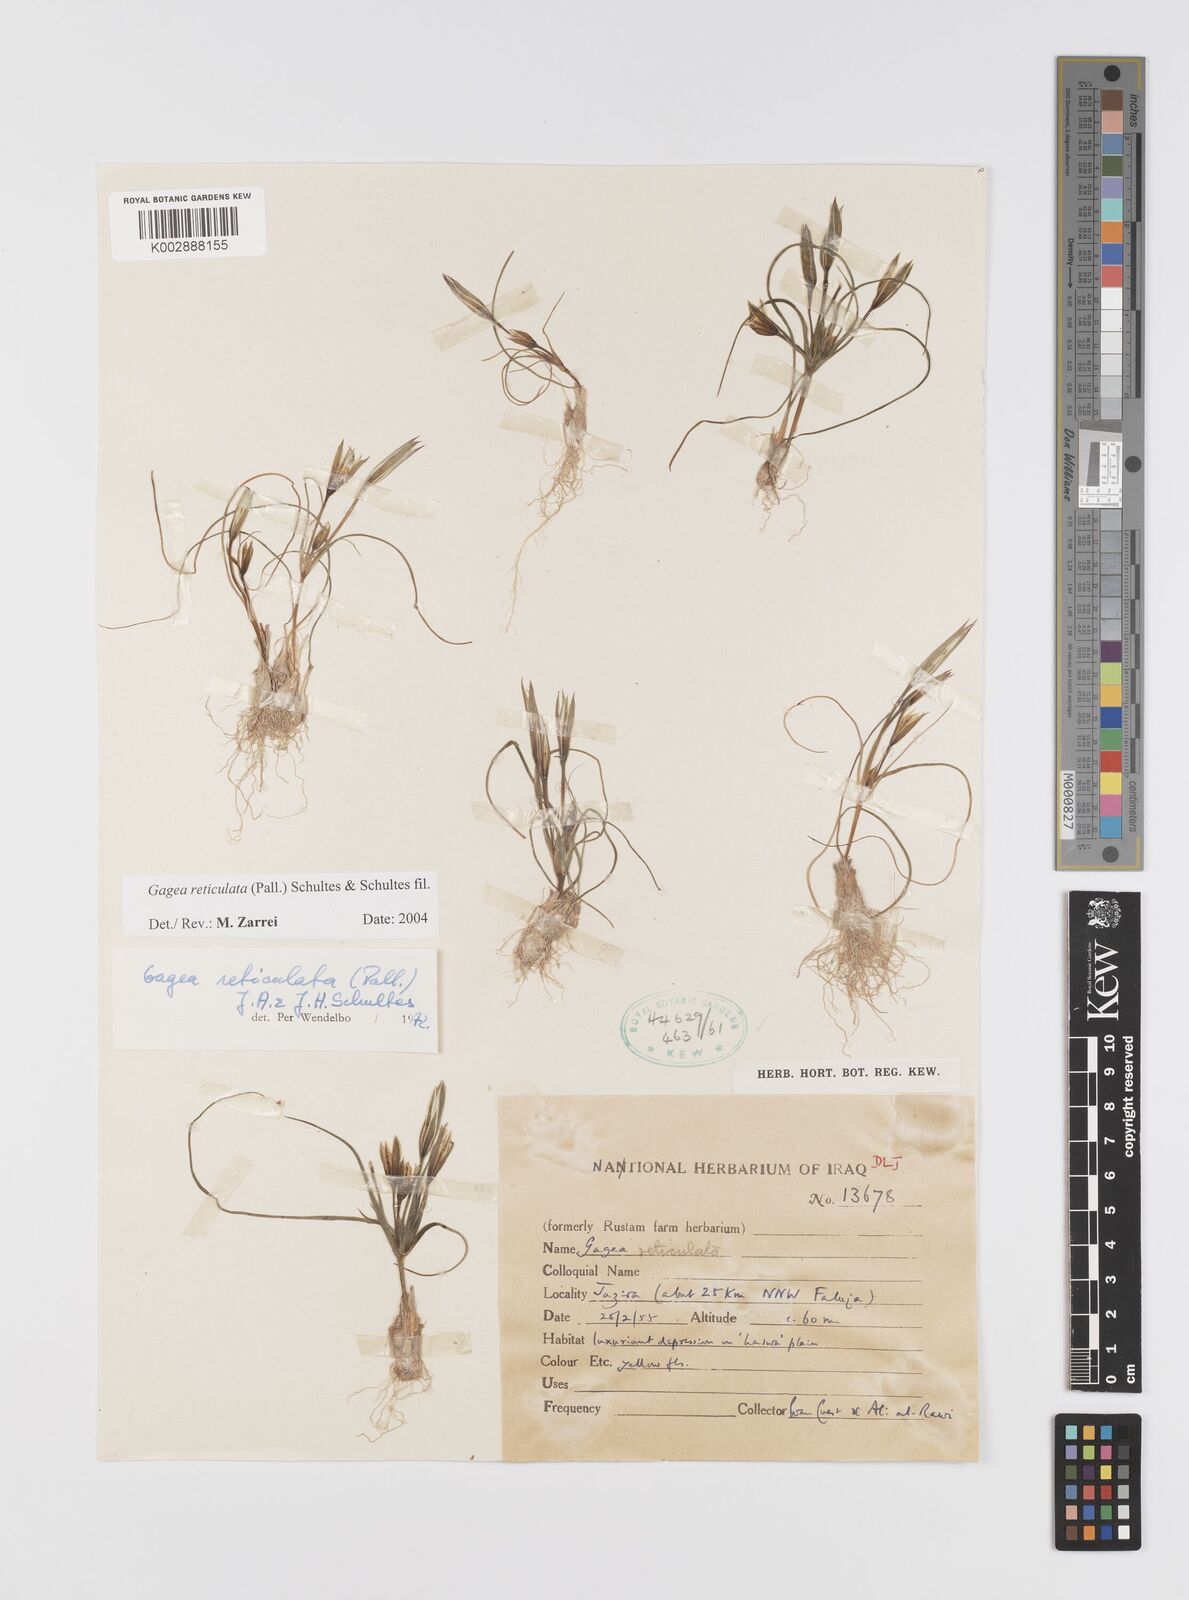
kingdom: Plantae
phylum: Tracheophyta
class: Liliopsida
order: Liliales
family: Liliaceae
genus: Gagea
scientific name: Gagea reticulata
